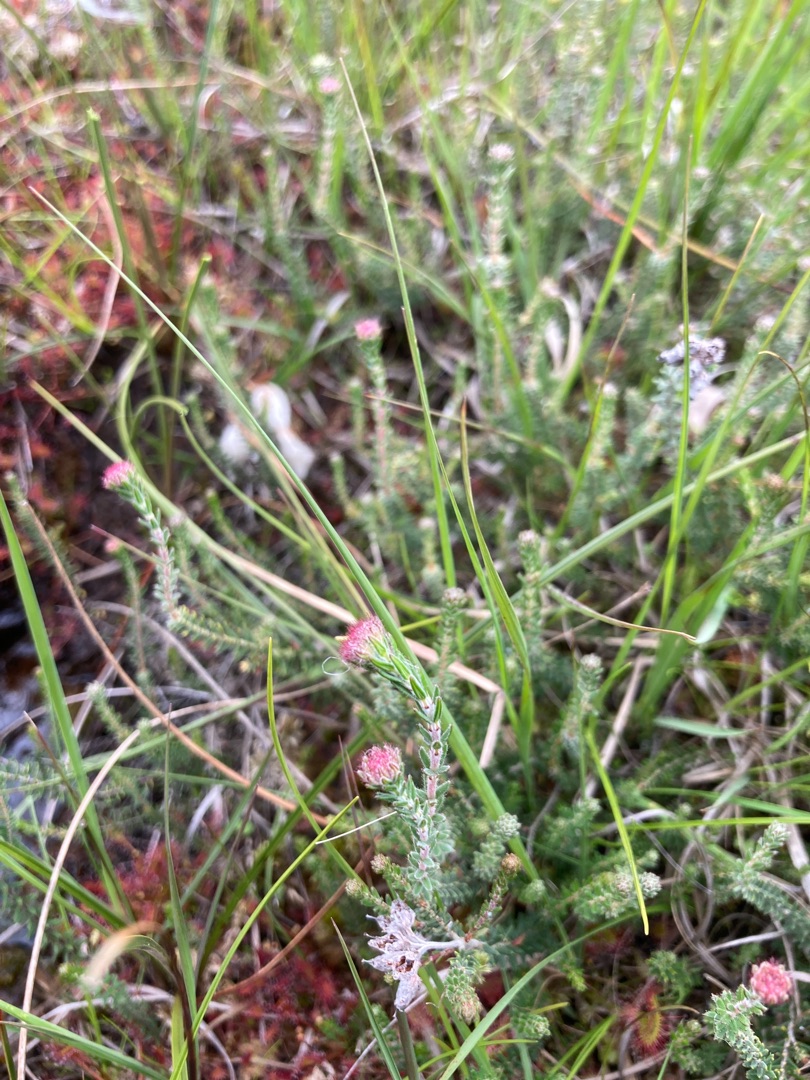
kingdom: Plantae
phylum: Tracheophyta
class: Magnoliopsida
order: Ericales
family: Ericaceae
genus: Erica
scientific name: Erica tetralix
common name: Klokkelyng
